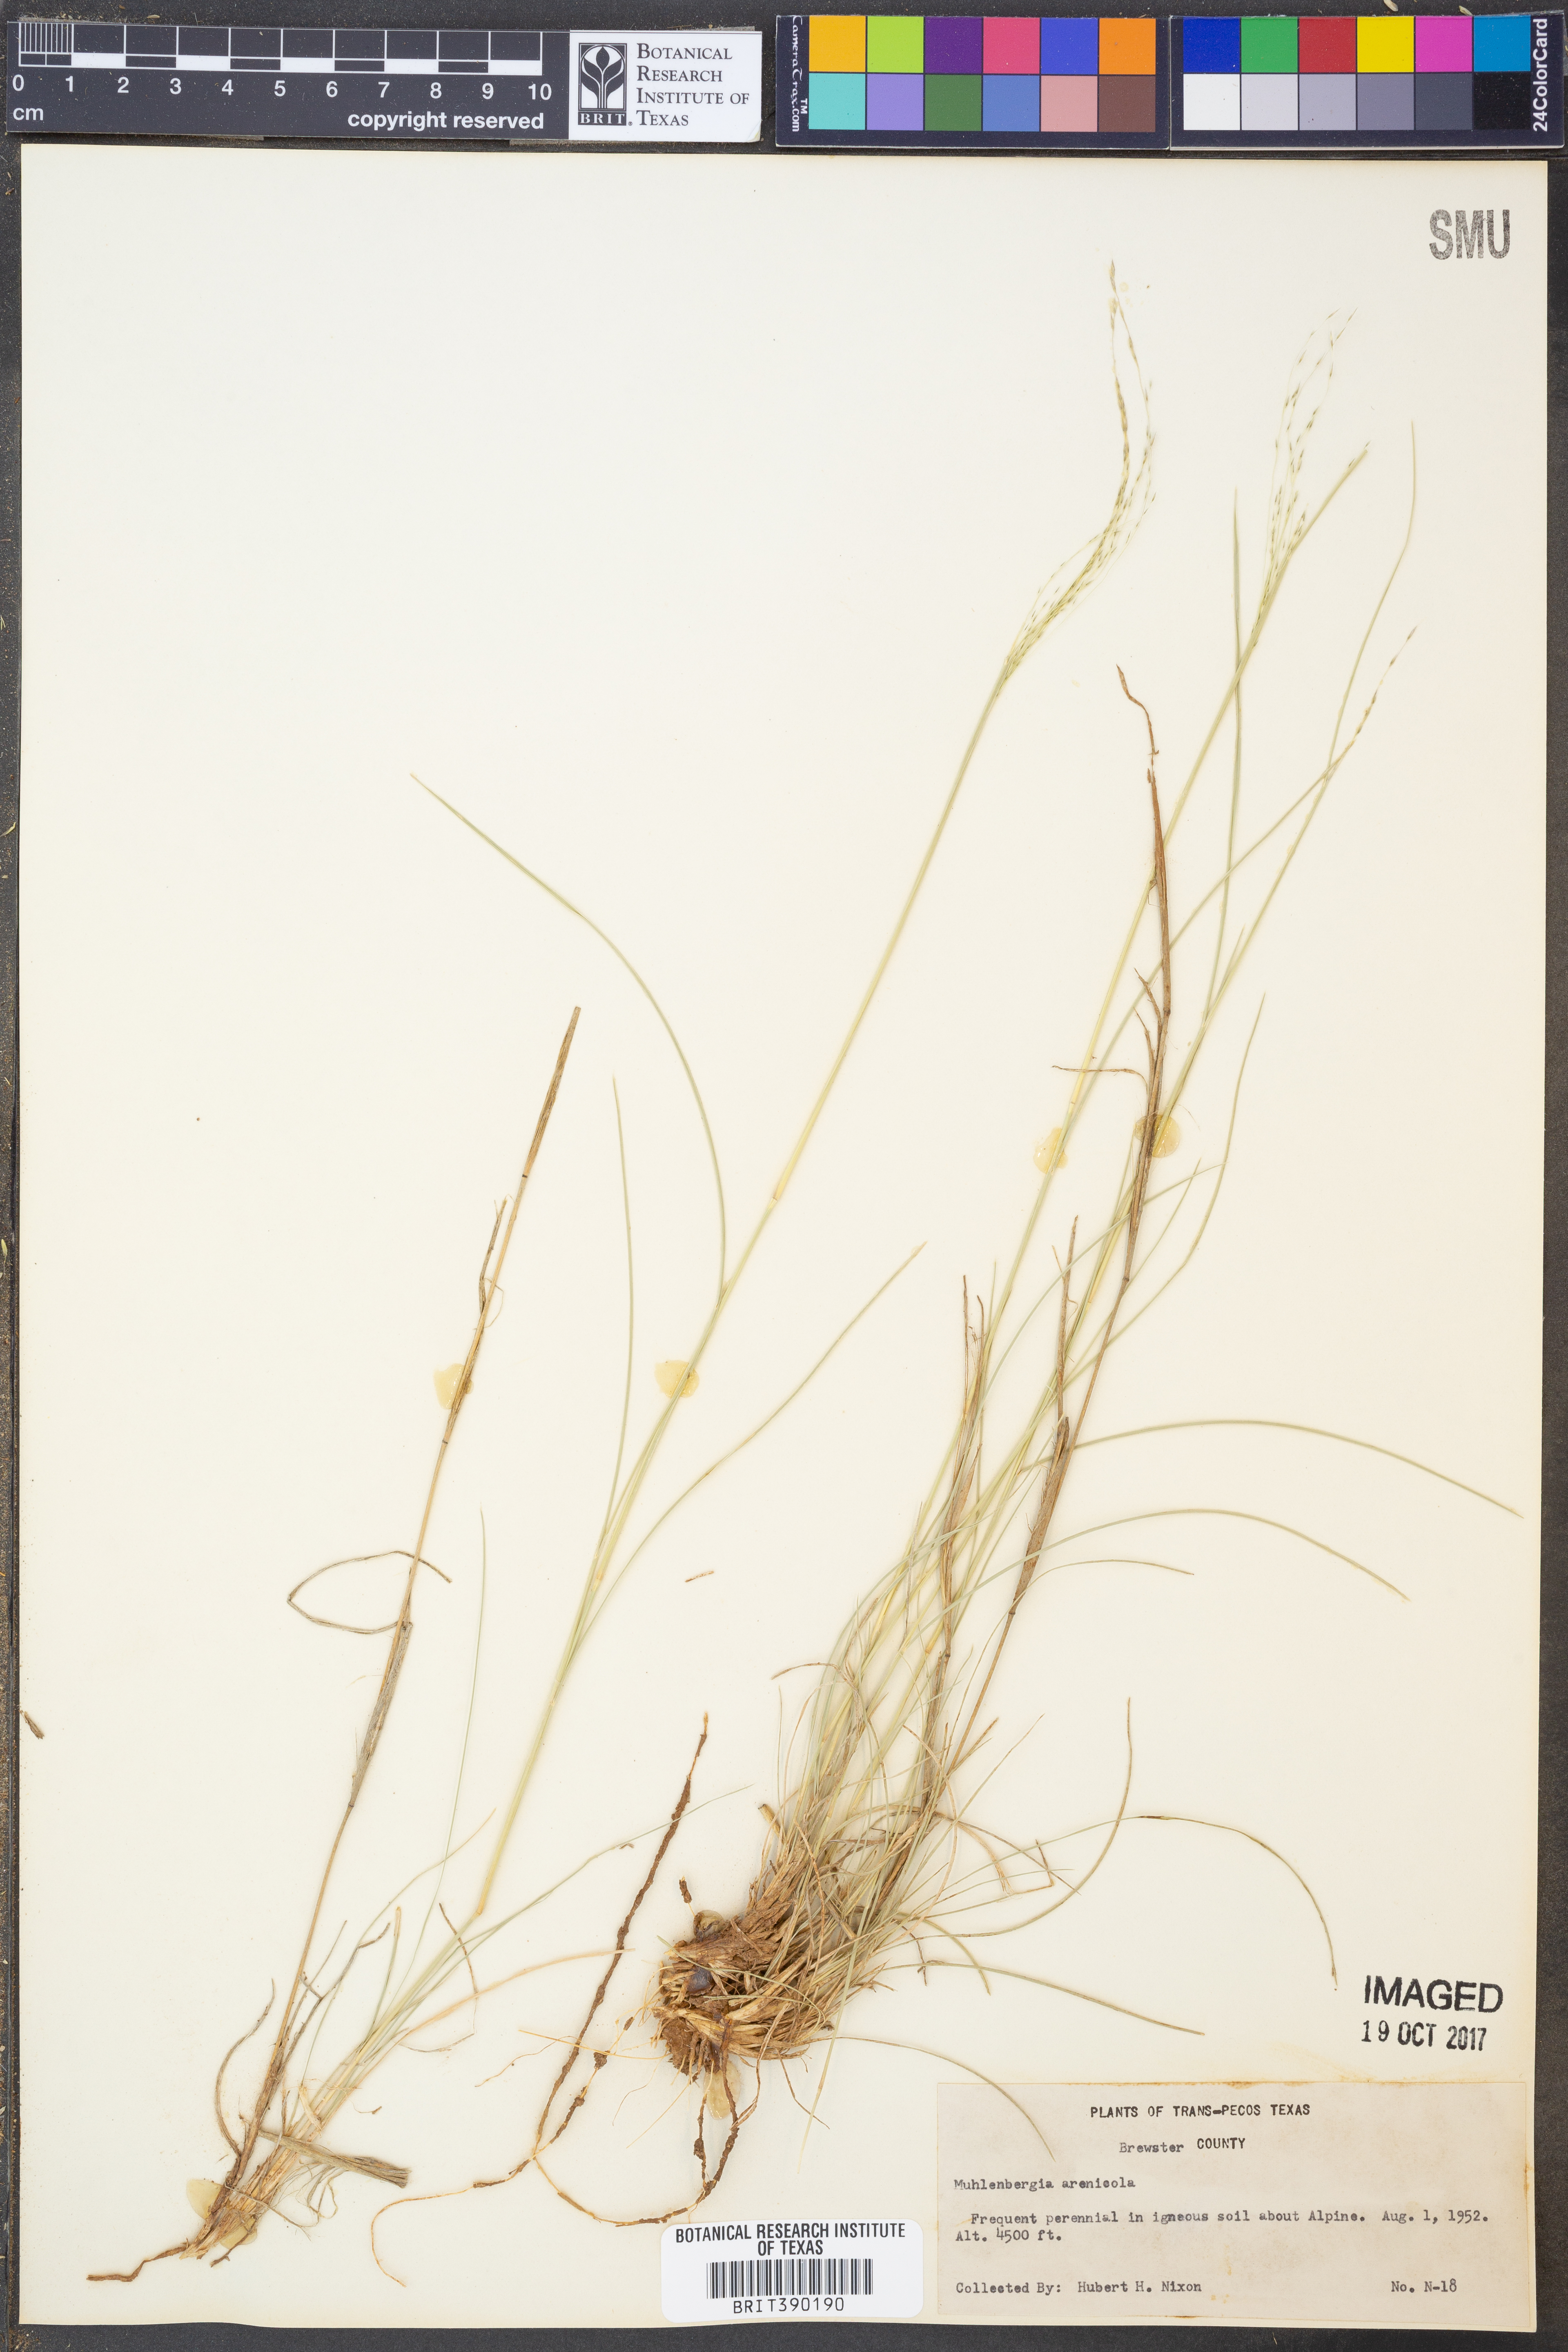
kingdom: Plantae
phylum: Tracheophyta
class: Liliopsida
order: Poales
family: Poaceae
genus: Muhlenbergia
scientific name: Muhlenbergia arenicola
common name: Sand muhly
